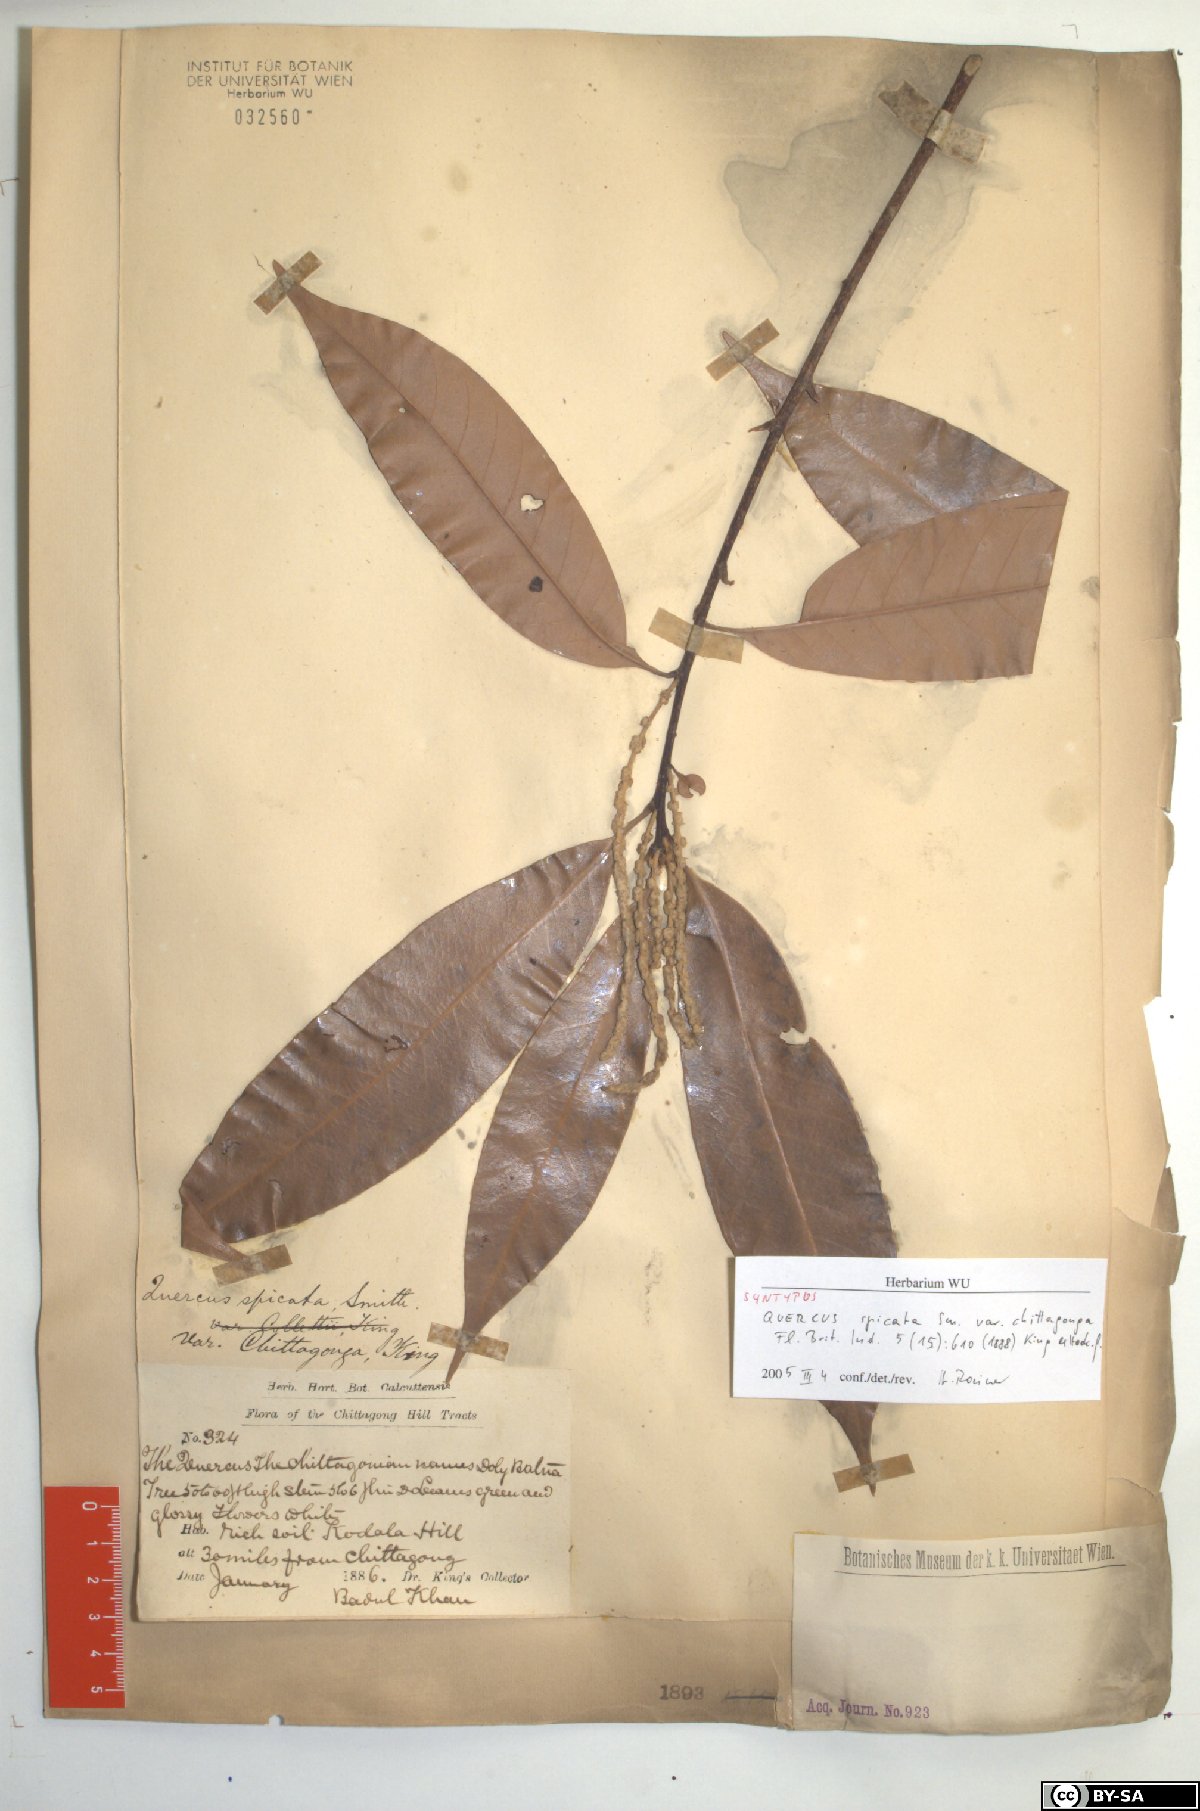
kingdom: Plantae
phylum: Tracheophyta
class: Magnoliopsida
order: Fagales
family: Fagaceae
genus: Lithocarpus
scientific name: Lithocarpus chittagongus
